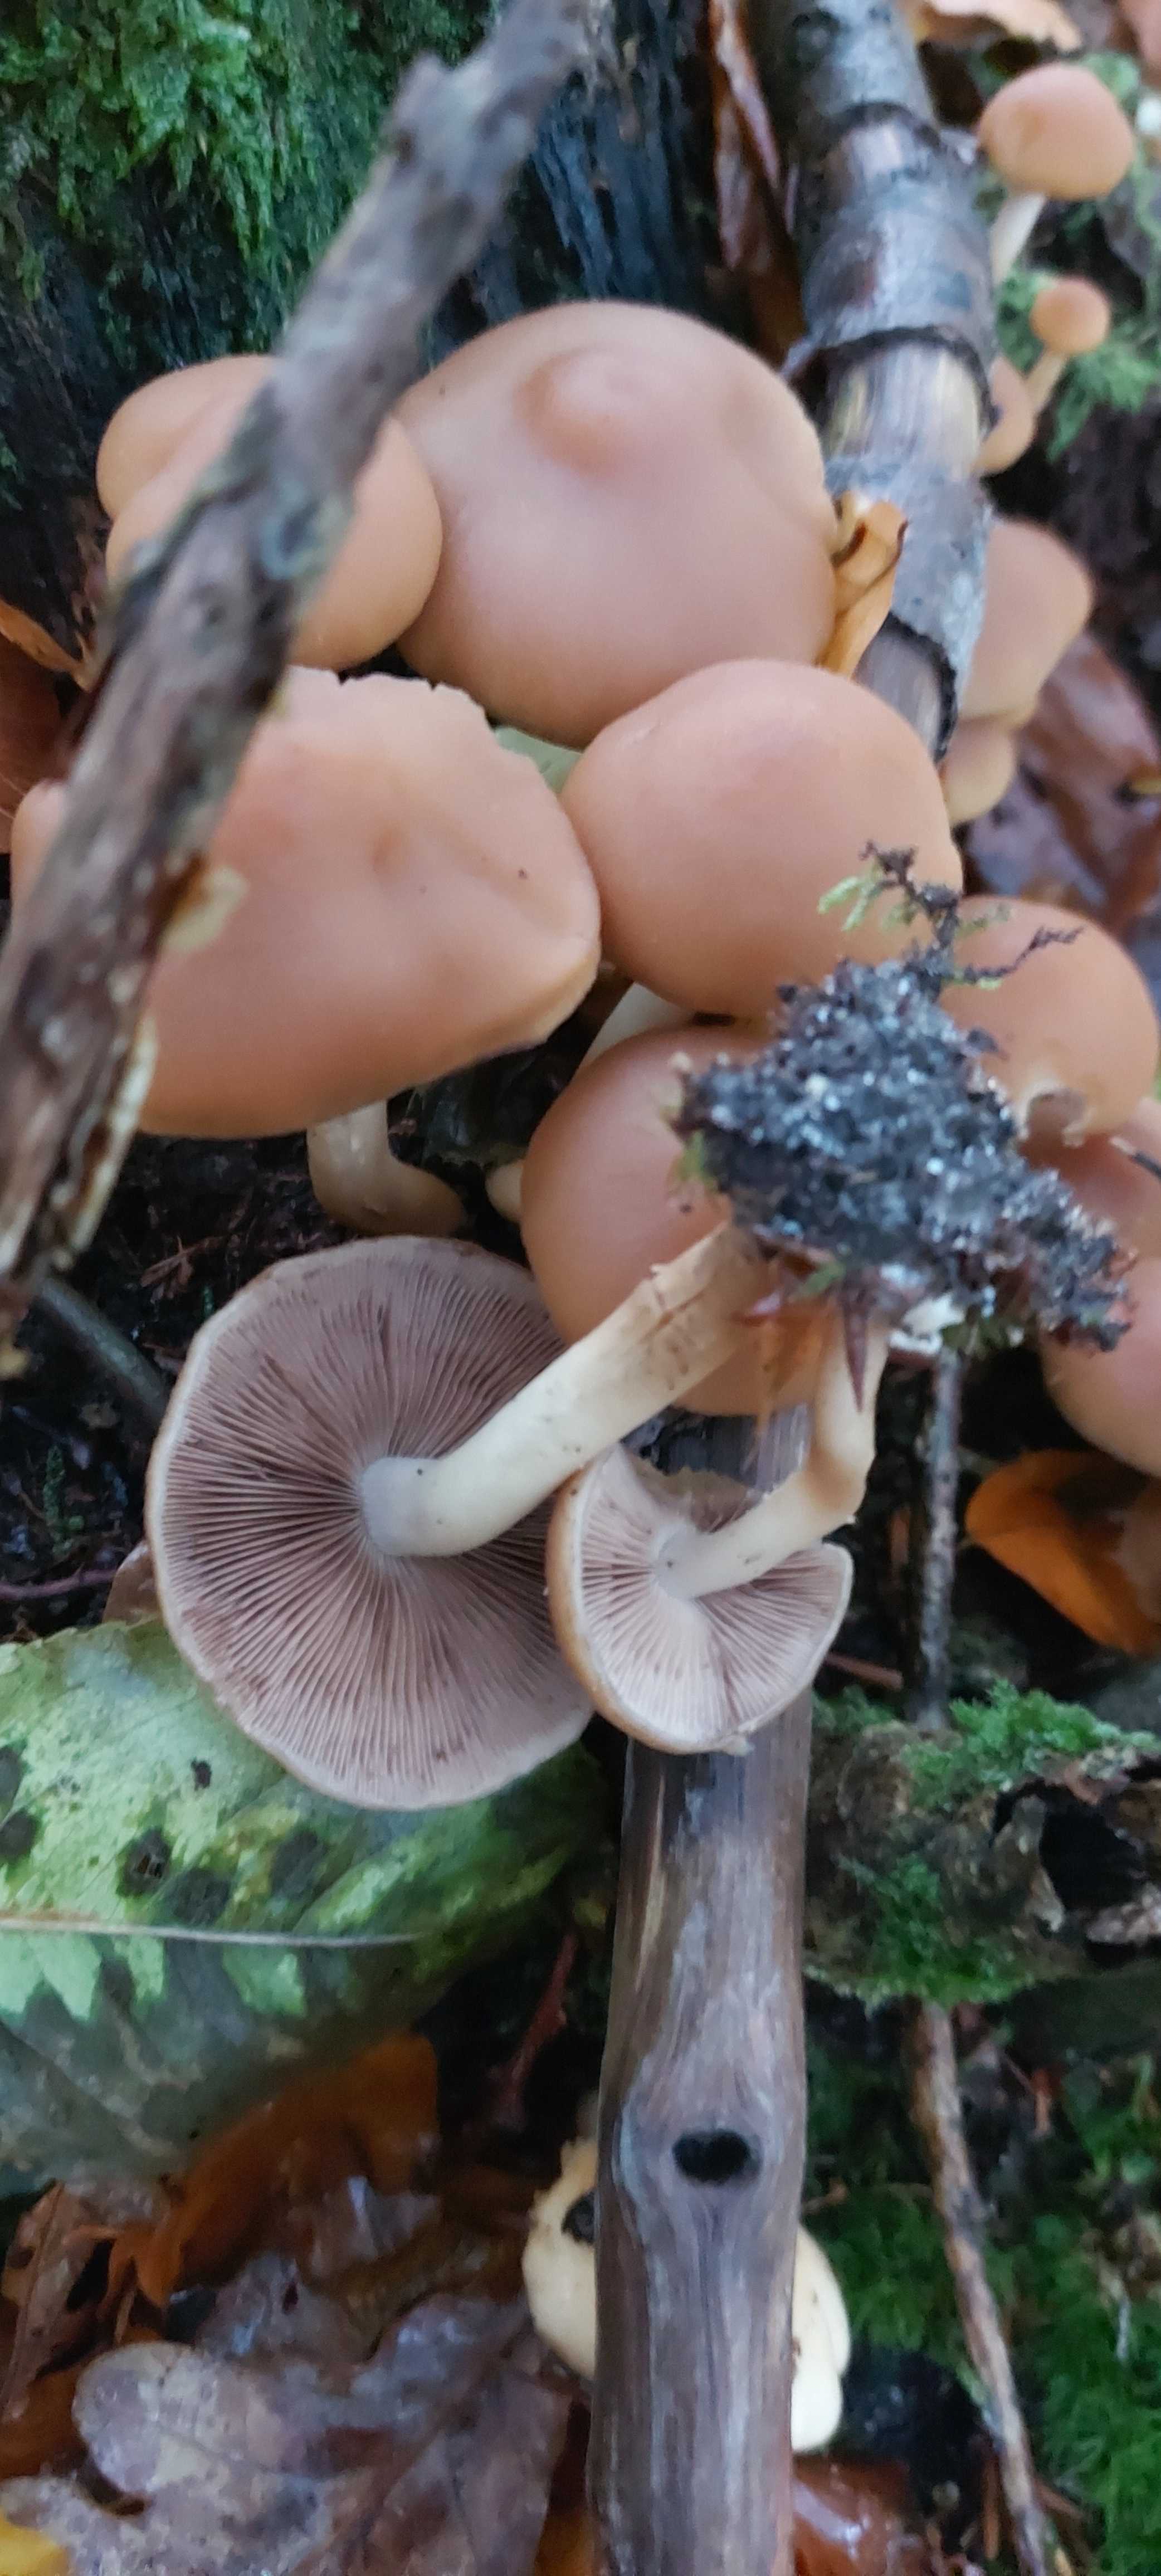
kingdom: Fungi
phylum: Basidiomycota
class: Agaricomycetes
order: Agaricales
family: Psathyrellaceae
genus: Psathyrella
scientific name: Psathyrella piluliformis
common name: lysstokket mørkhat
